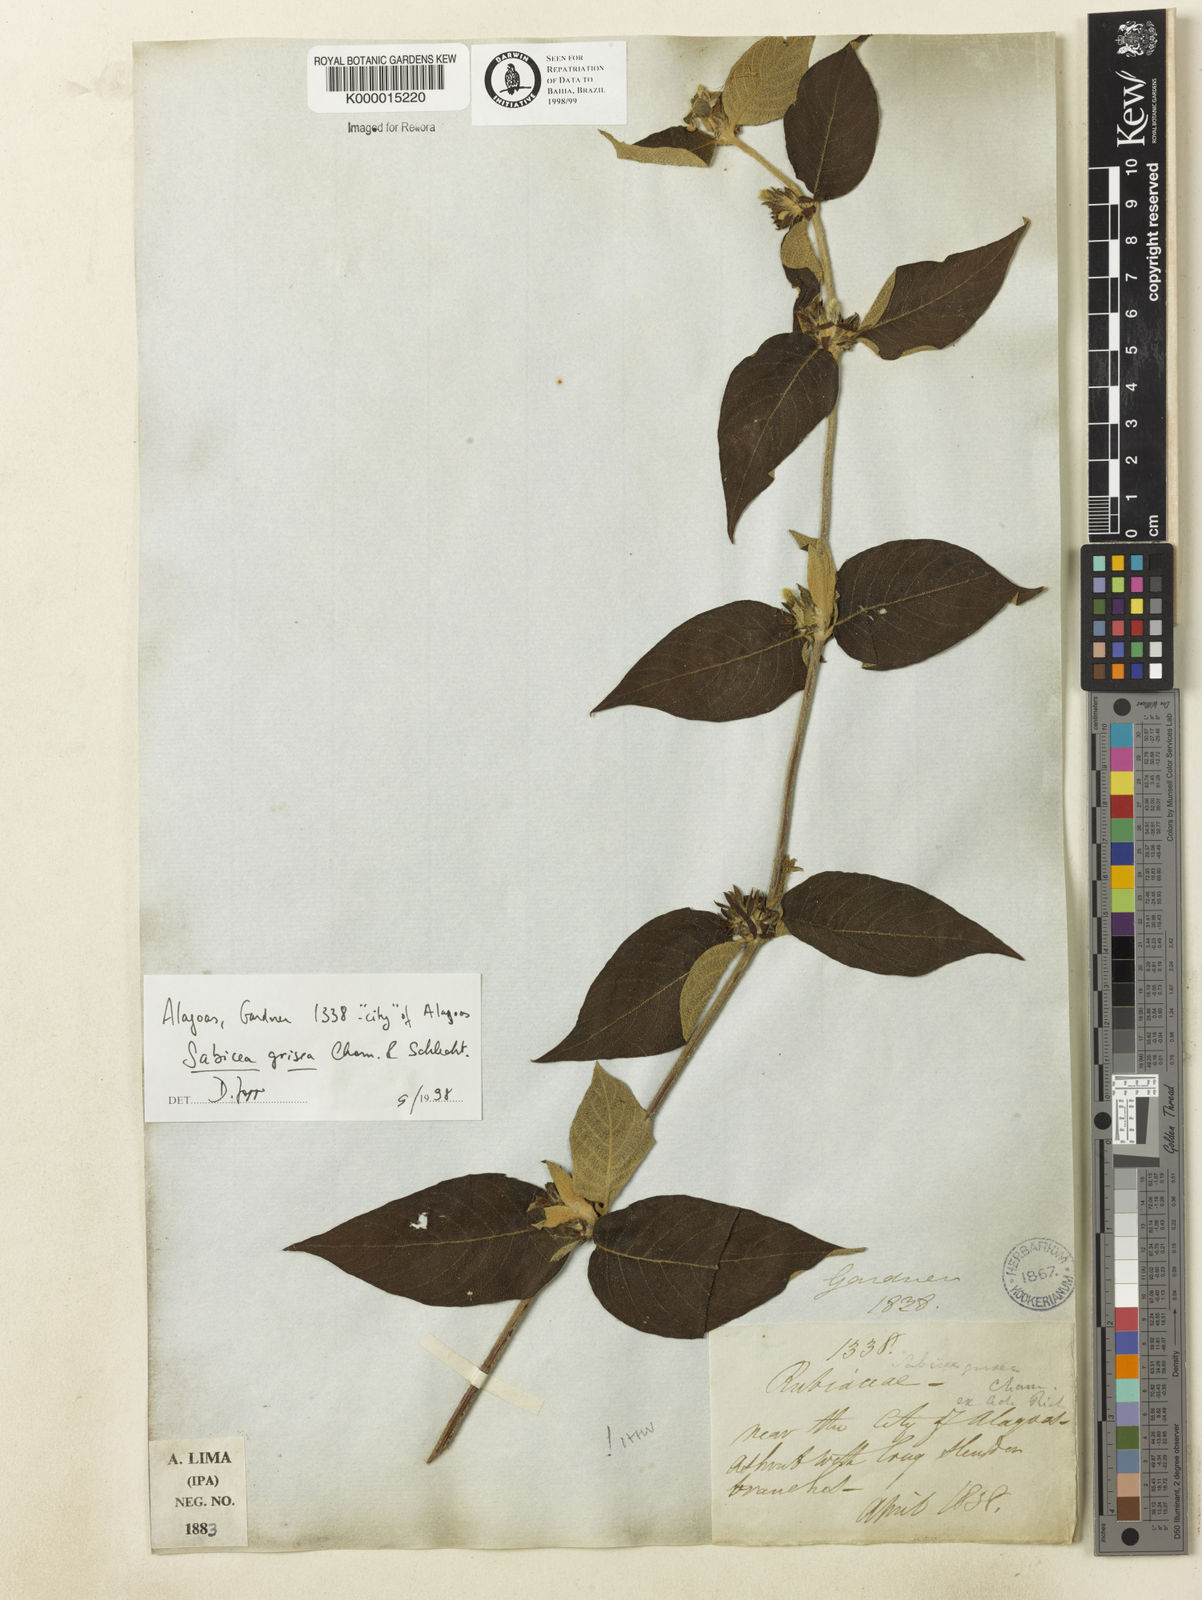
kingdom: Plantae
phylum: Tracheophyta
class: Magnoliopsida
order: Gentianales
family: Rubiaceae
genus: Sabicea
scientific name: Sabicea grisea
